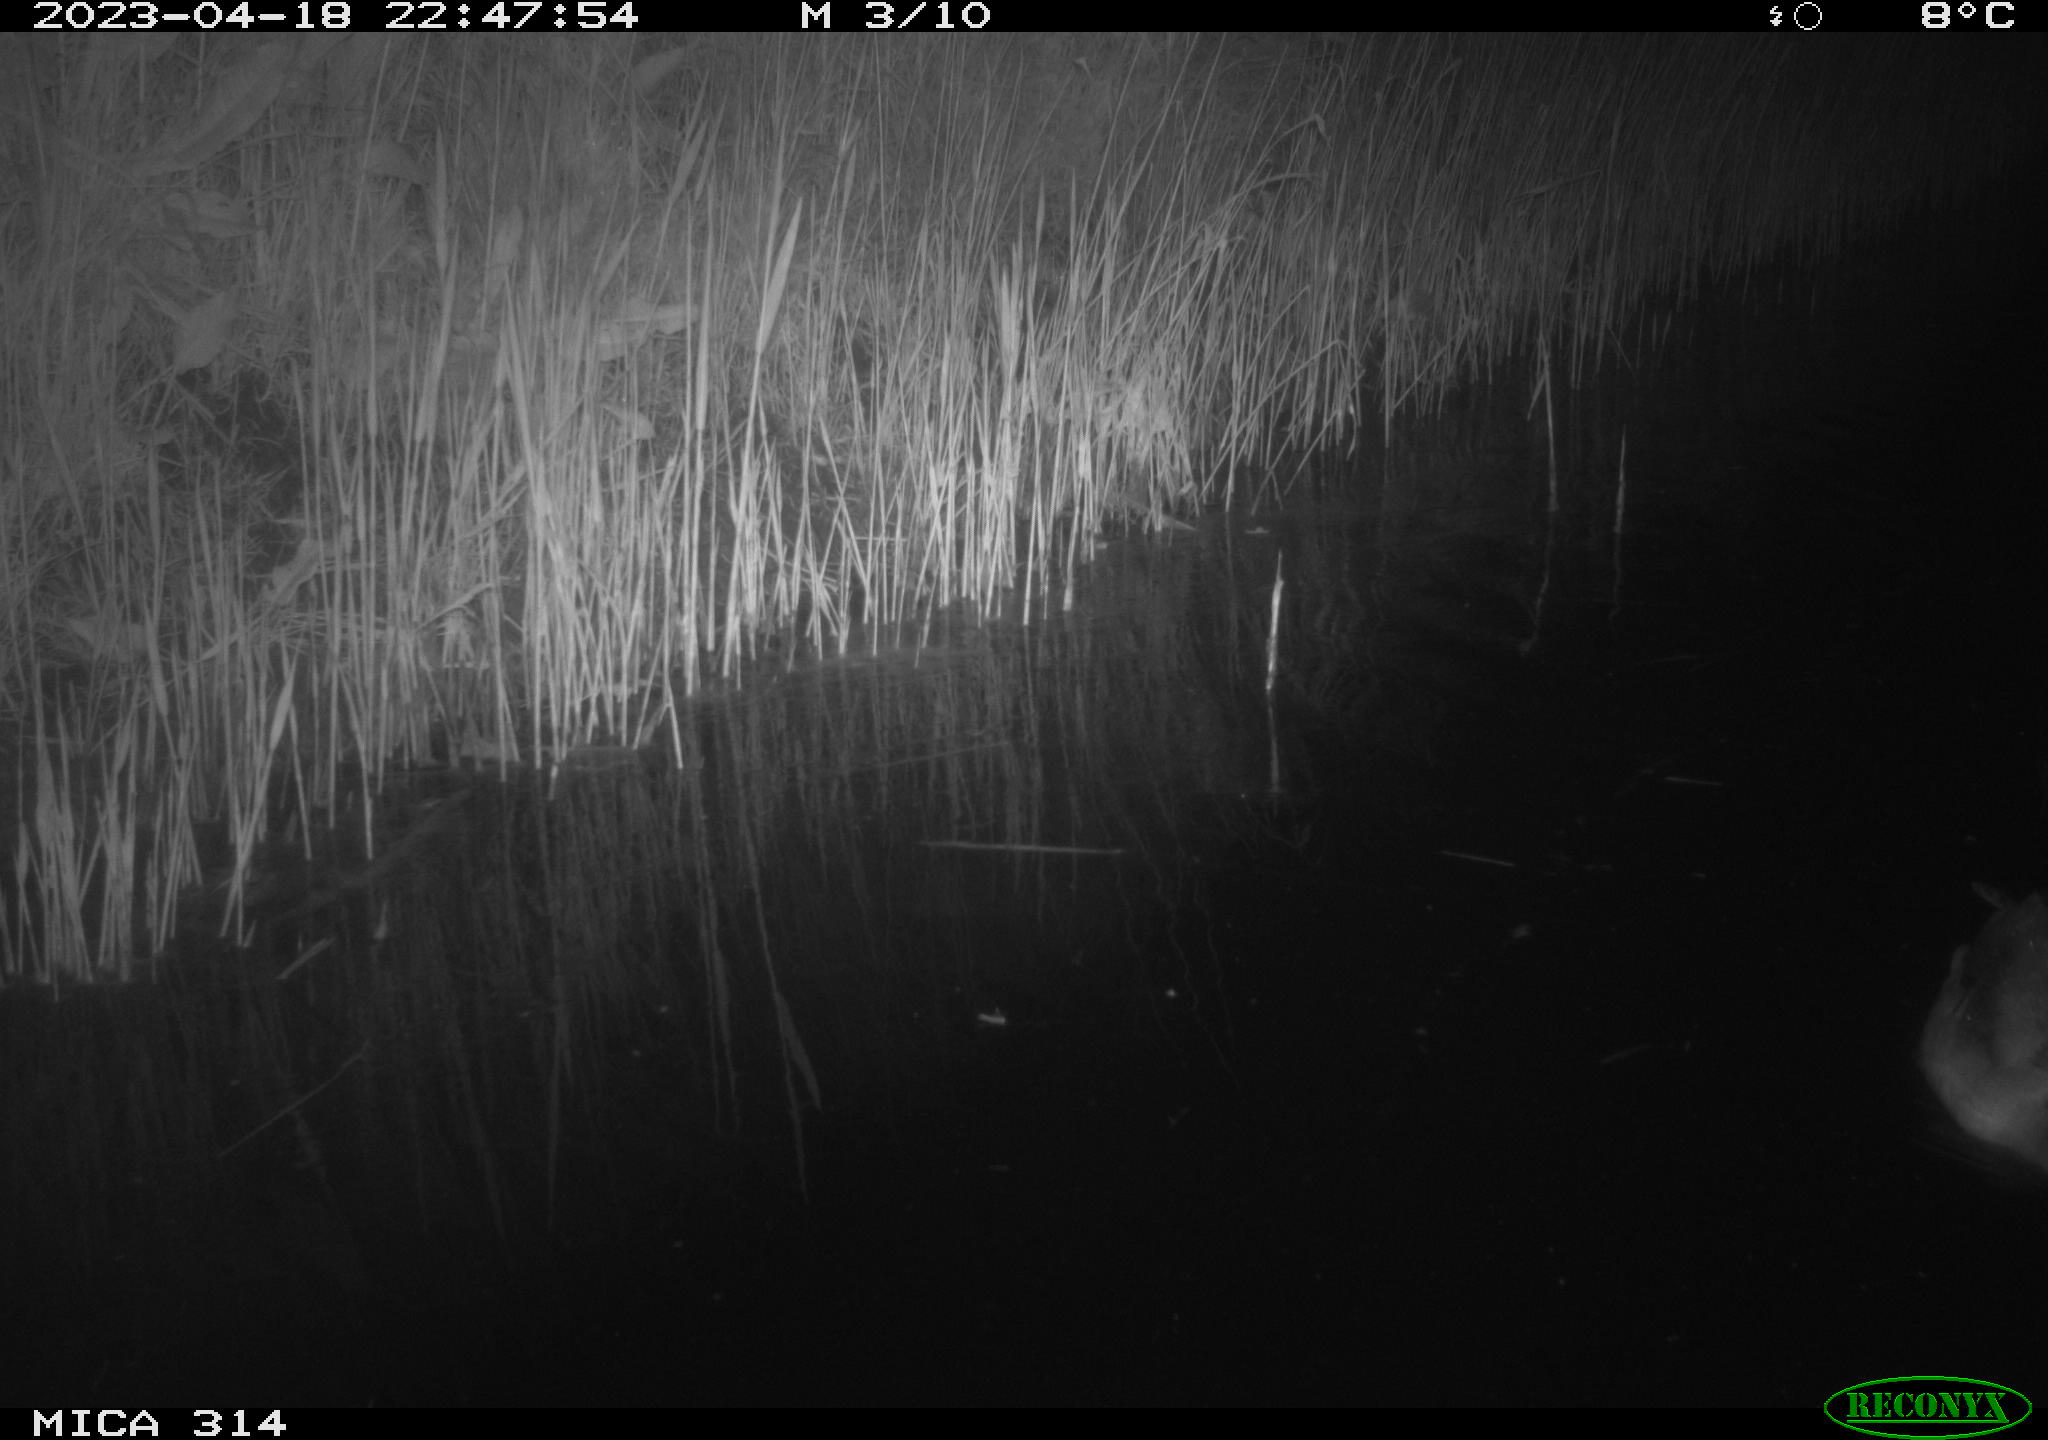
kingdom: Animalia
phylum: Chordata
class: Aves
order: Anseriformes
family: Anatidae
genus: Anas
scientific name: Anas
